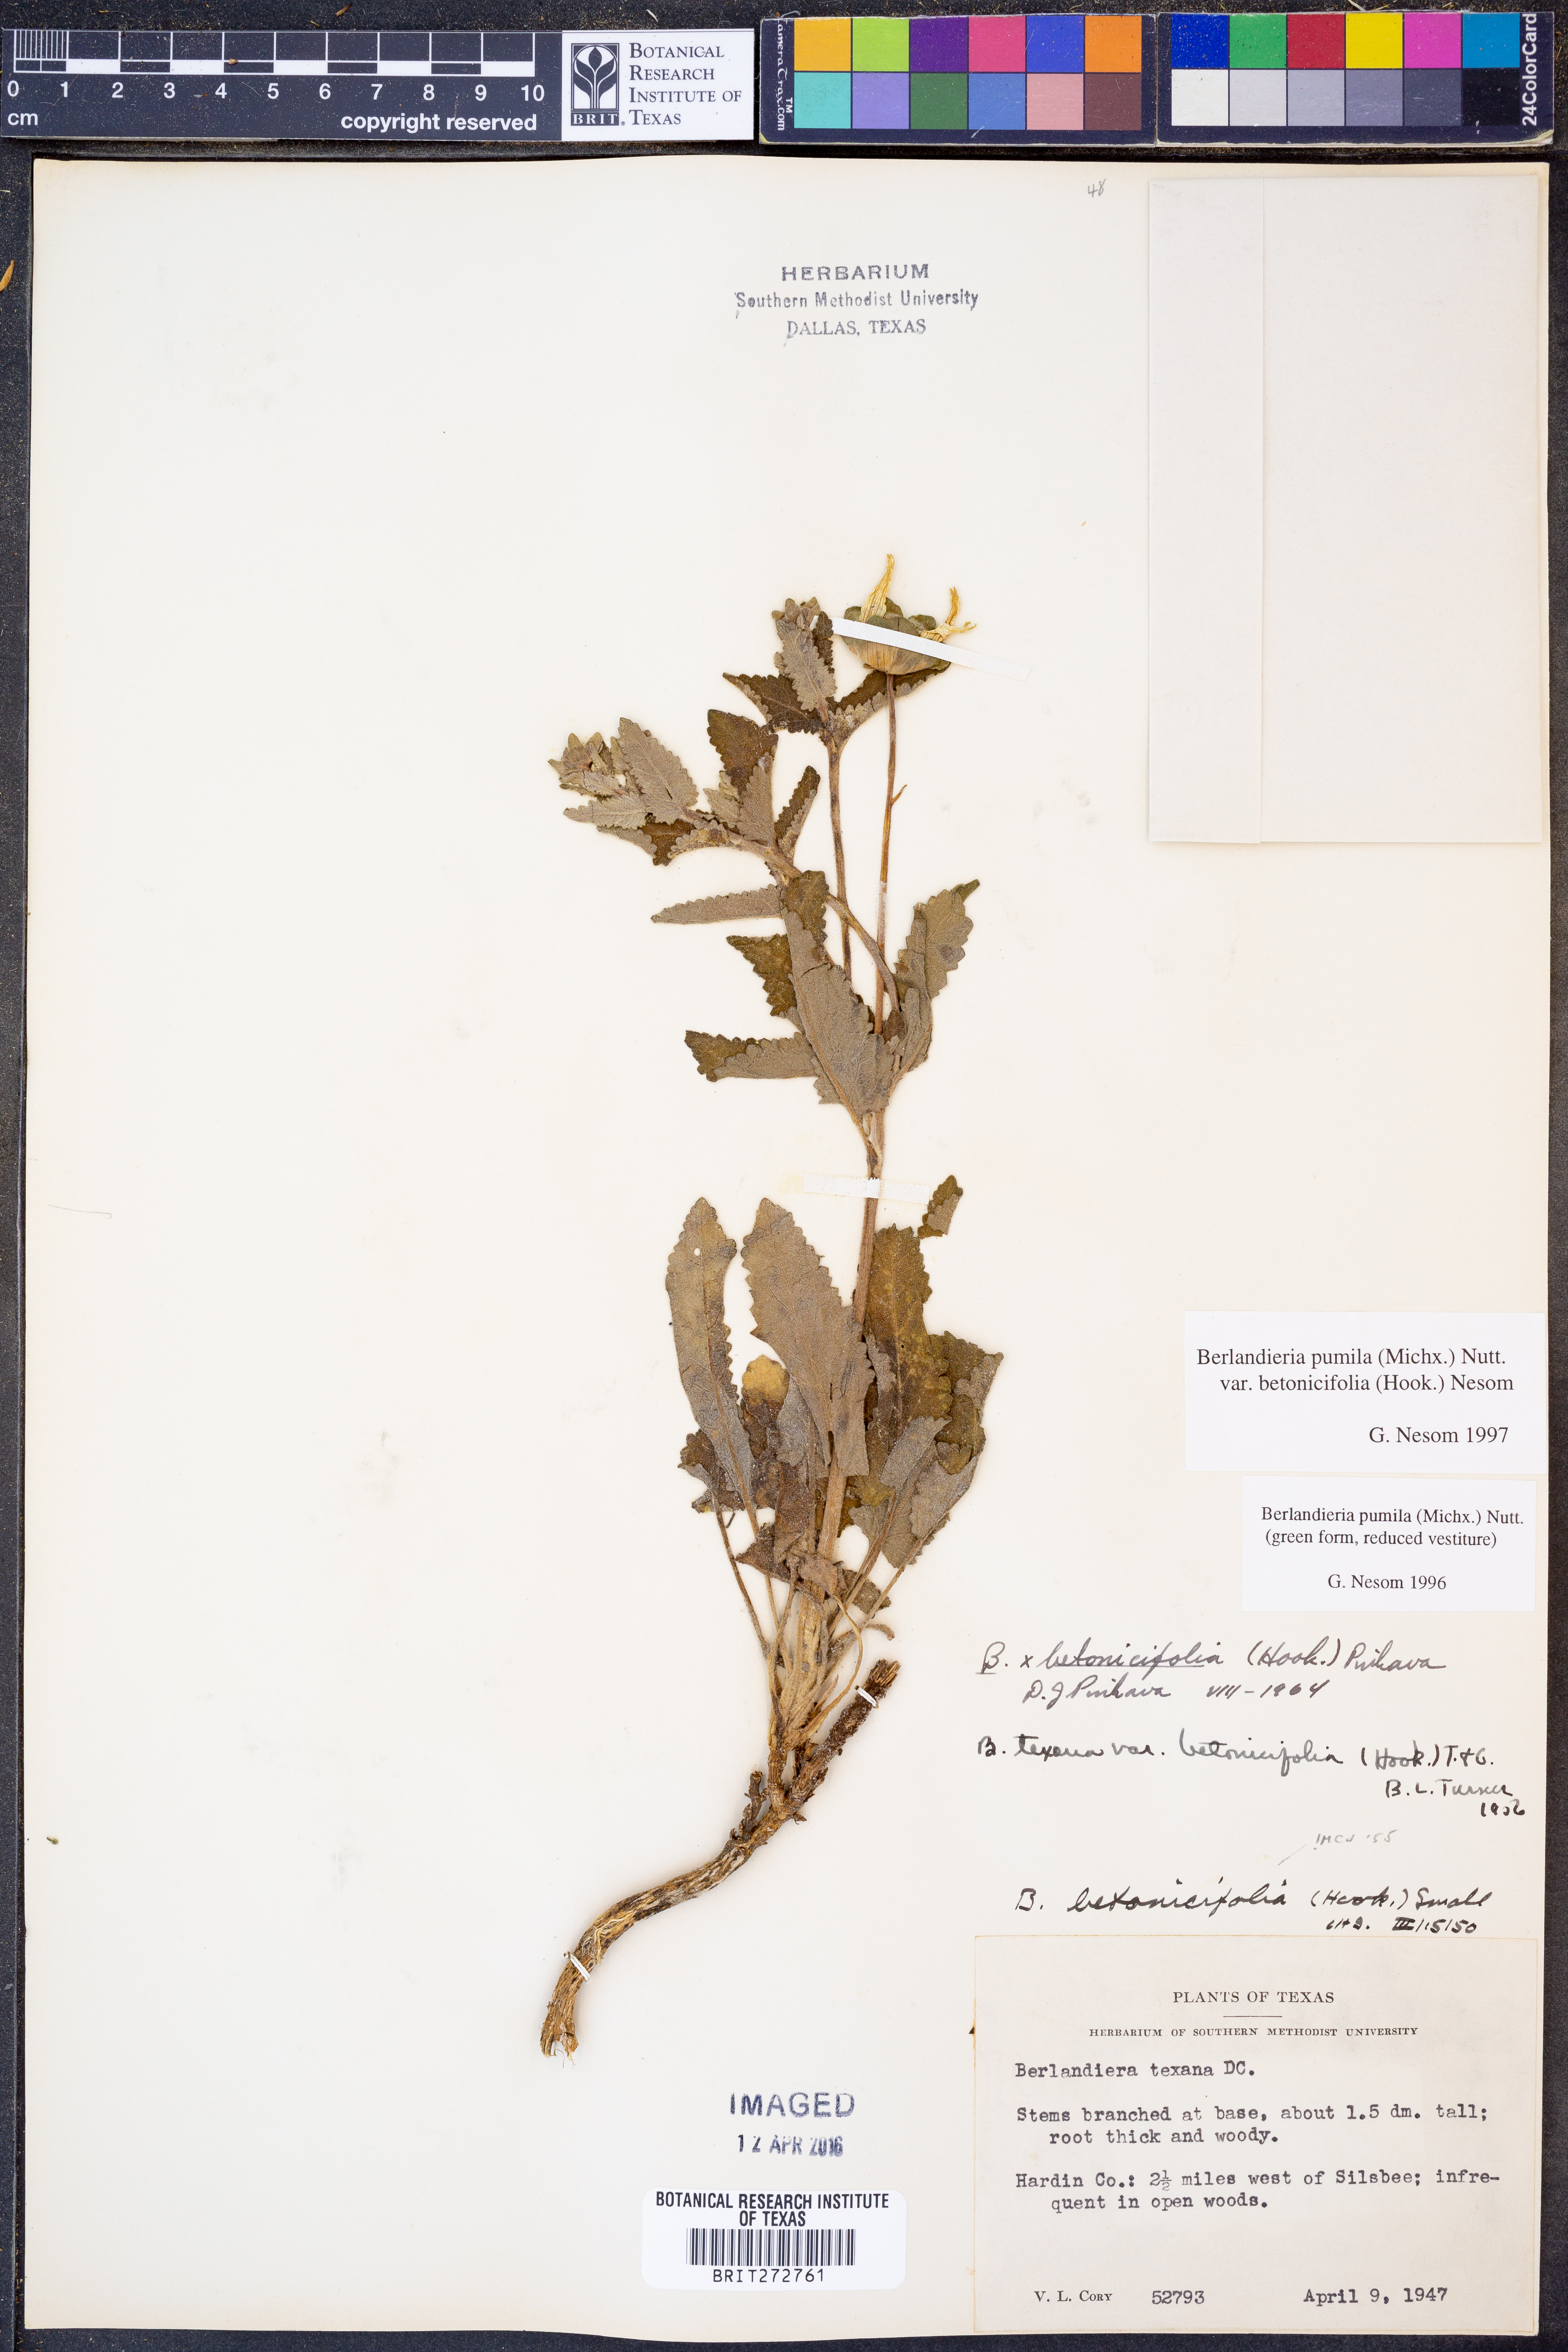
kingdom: Plantae
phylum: Tracheophyta
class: Magnoliopsida
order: Asterales
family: Asteraceae
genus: Berlandiera
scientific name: Berlandiera pumila
